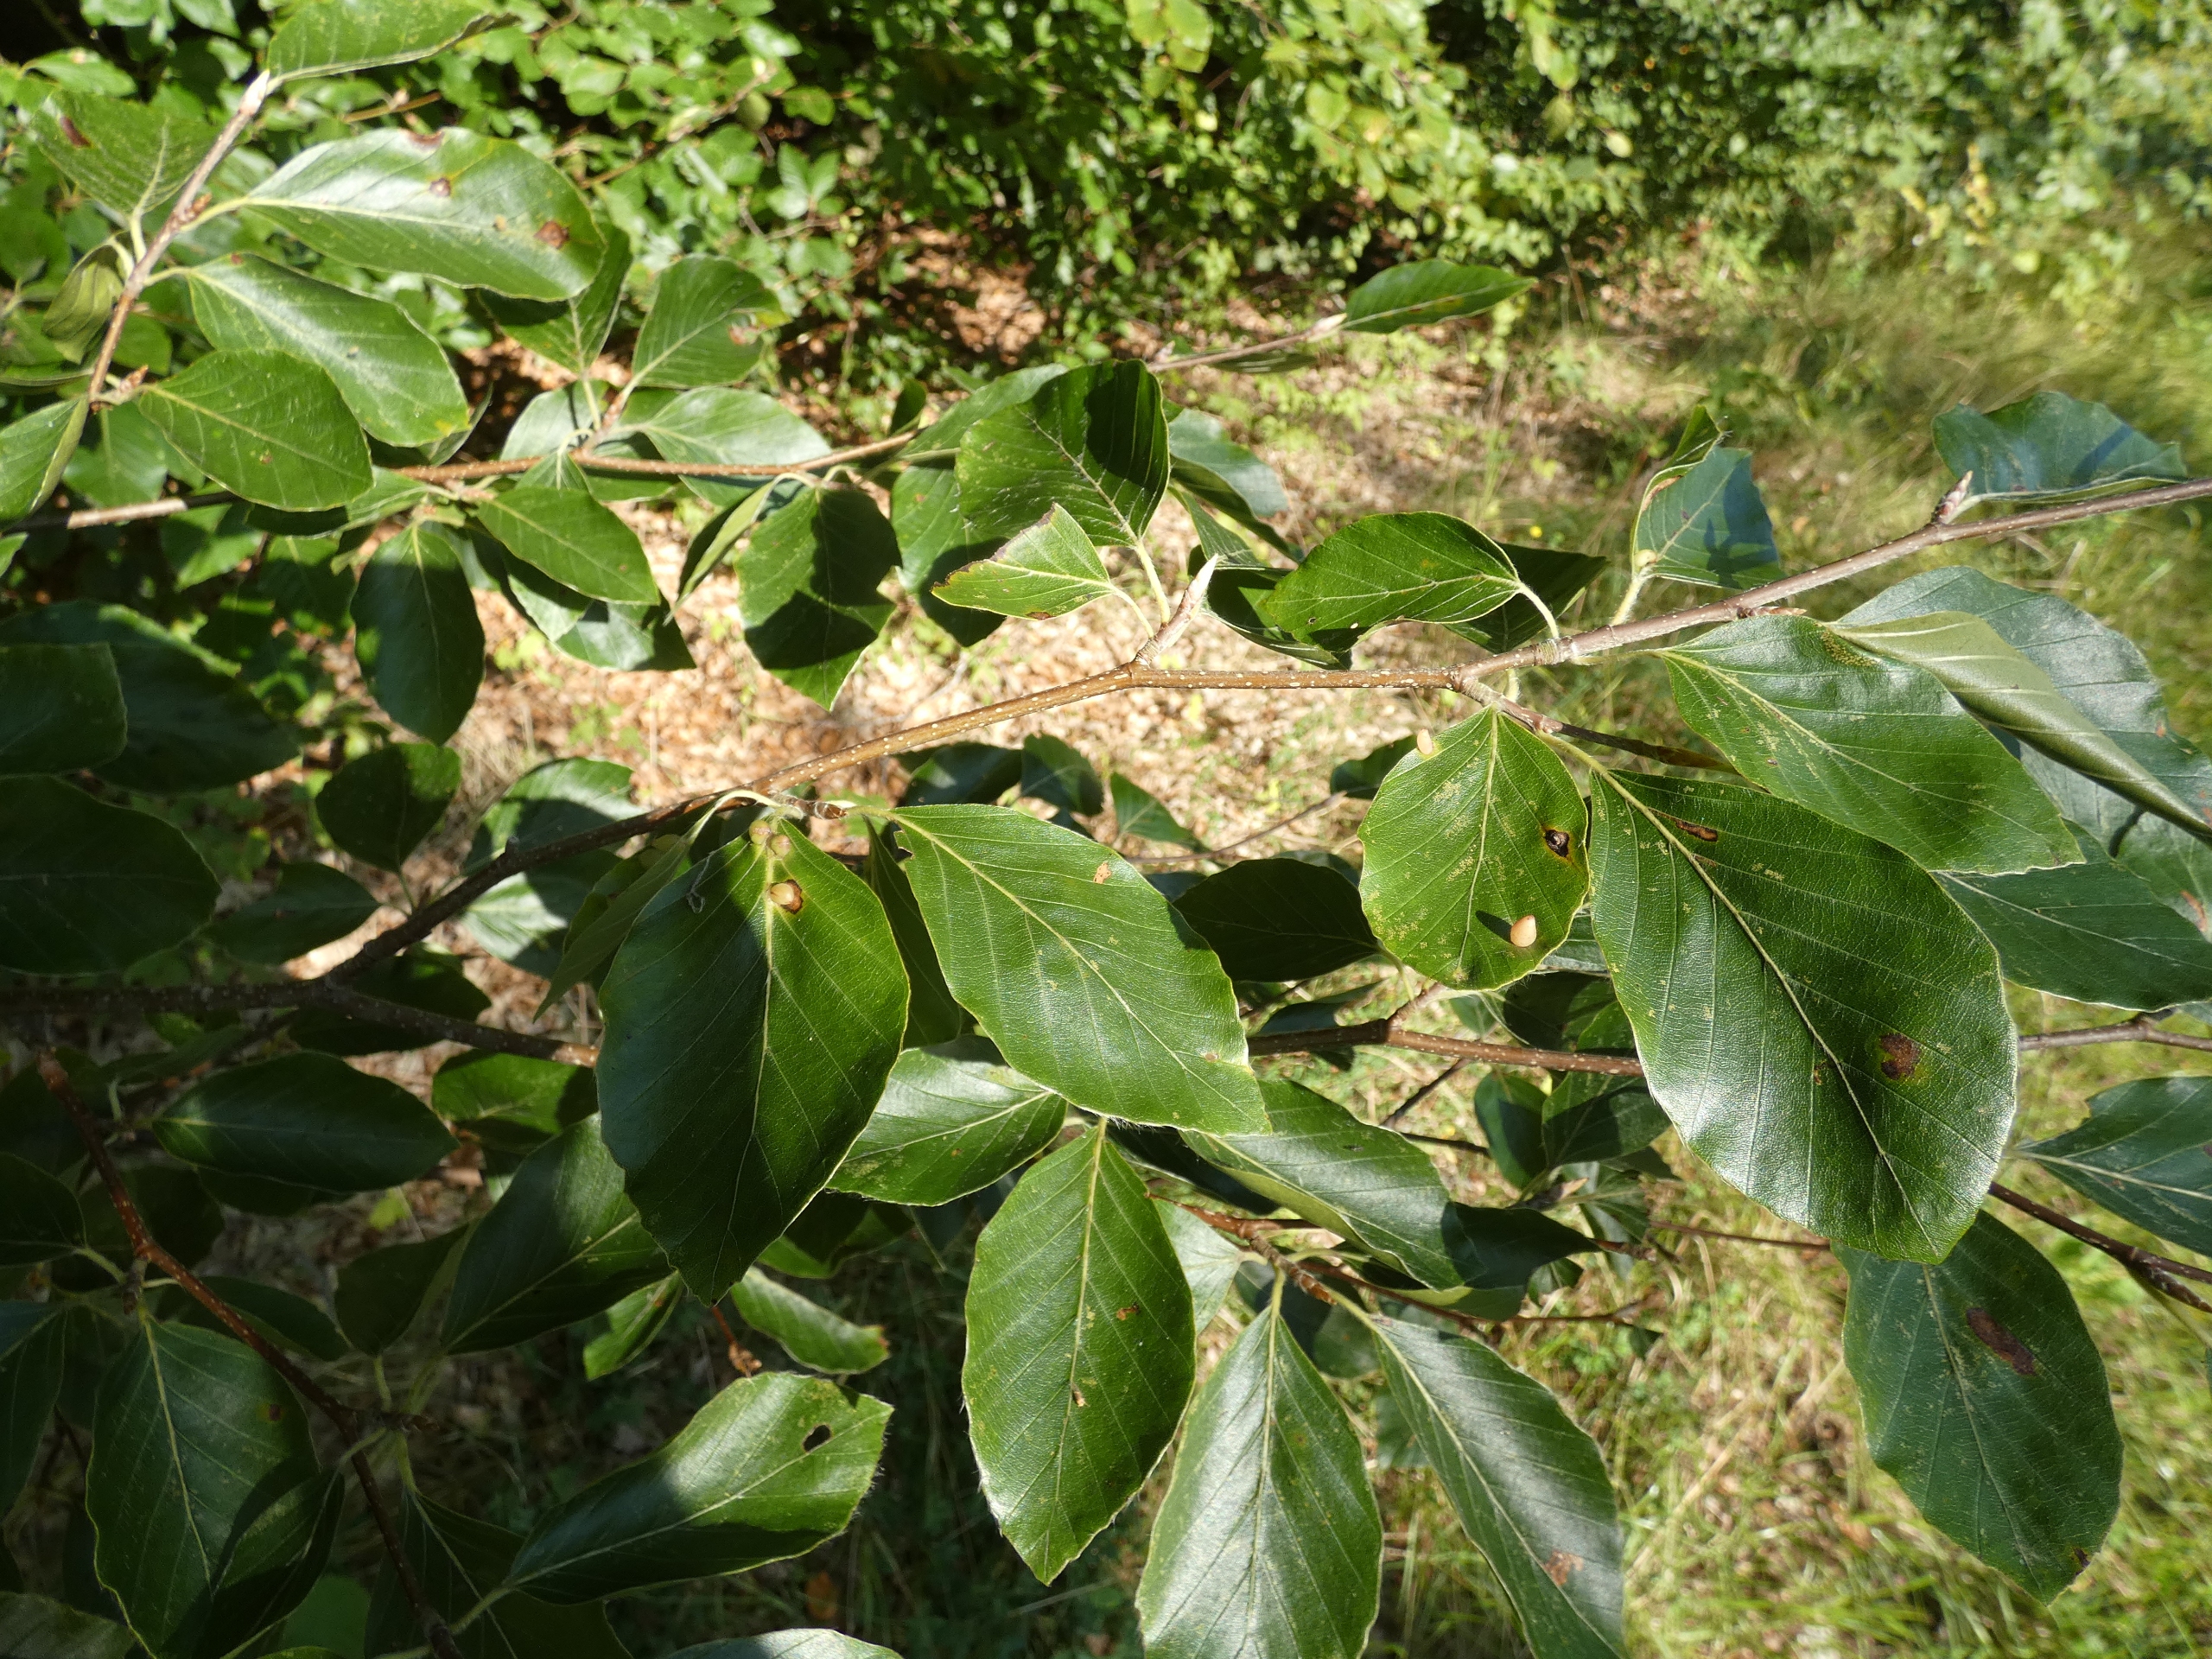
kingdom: Animalia
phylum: Arthropoda
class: Insecta
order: Diptera
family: Cecidomyiidae
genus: Mikiola
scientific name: Mikiola fagi
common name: Bøgegalmyg
